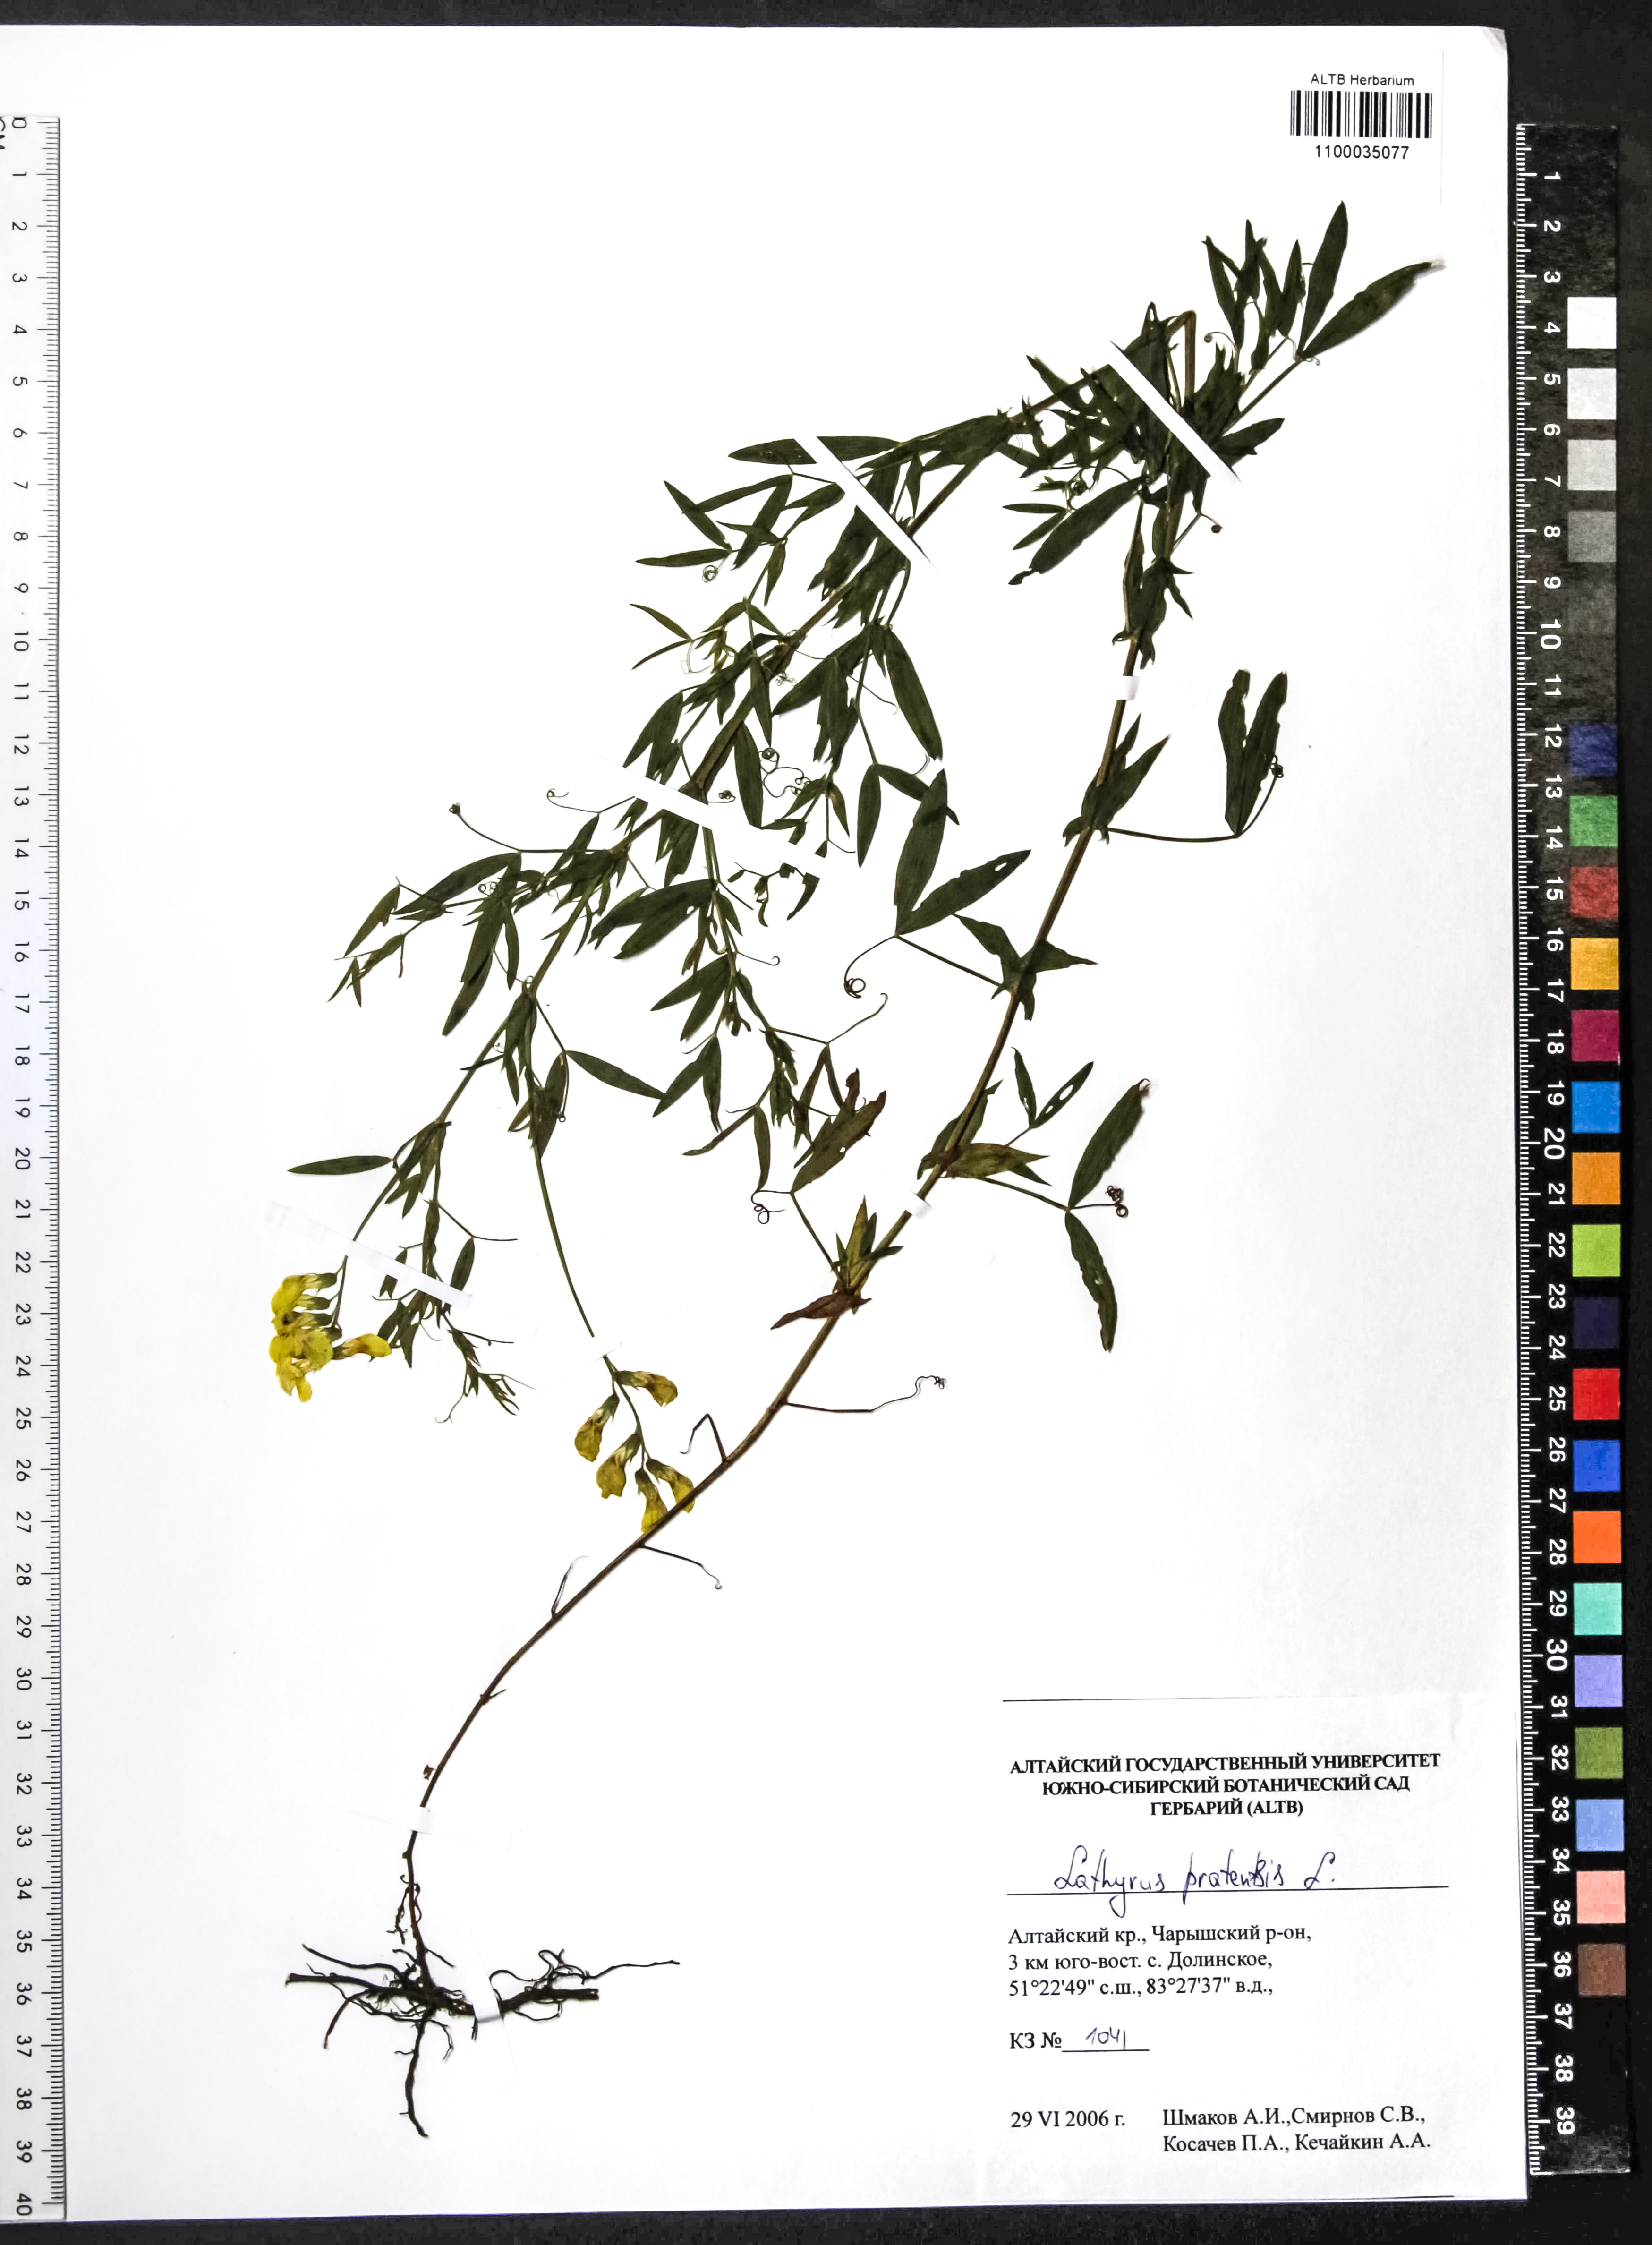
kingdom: Plantae
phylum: Tracheophyta
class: Magnoliopsida
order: Fabales
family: Fabaceae
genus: Lathyrus
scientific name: Lathyrus pratensis
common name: Meadow vetchling
